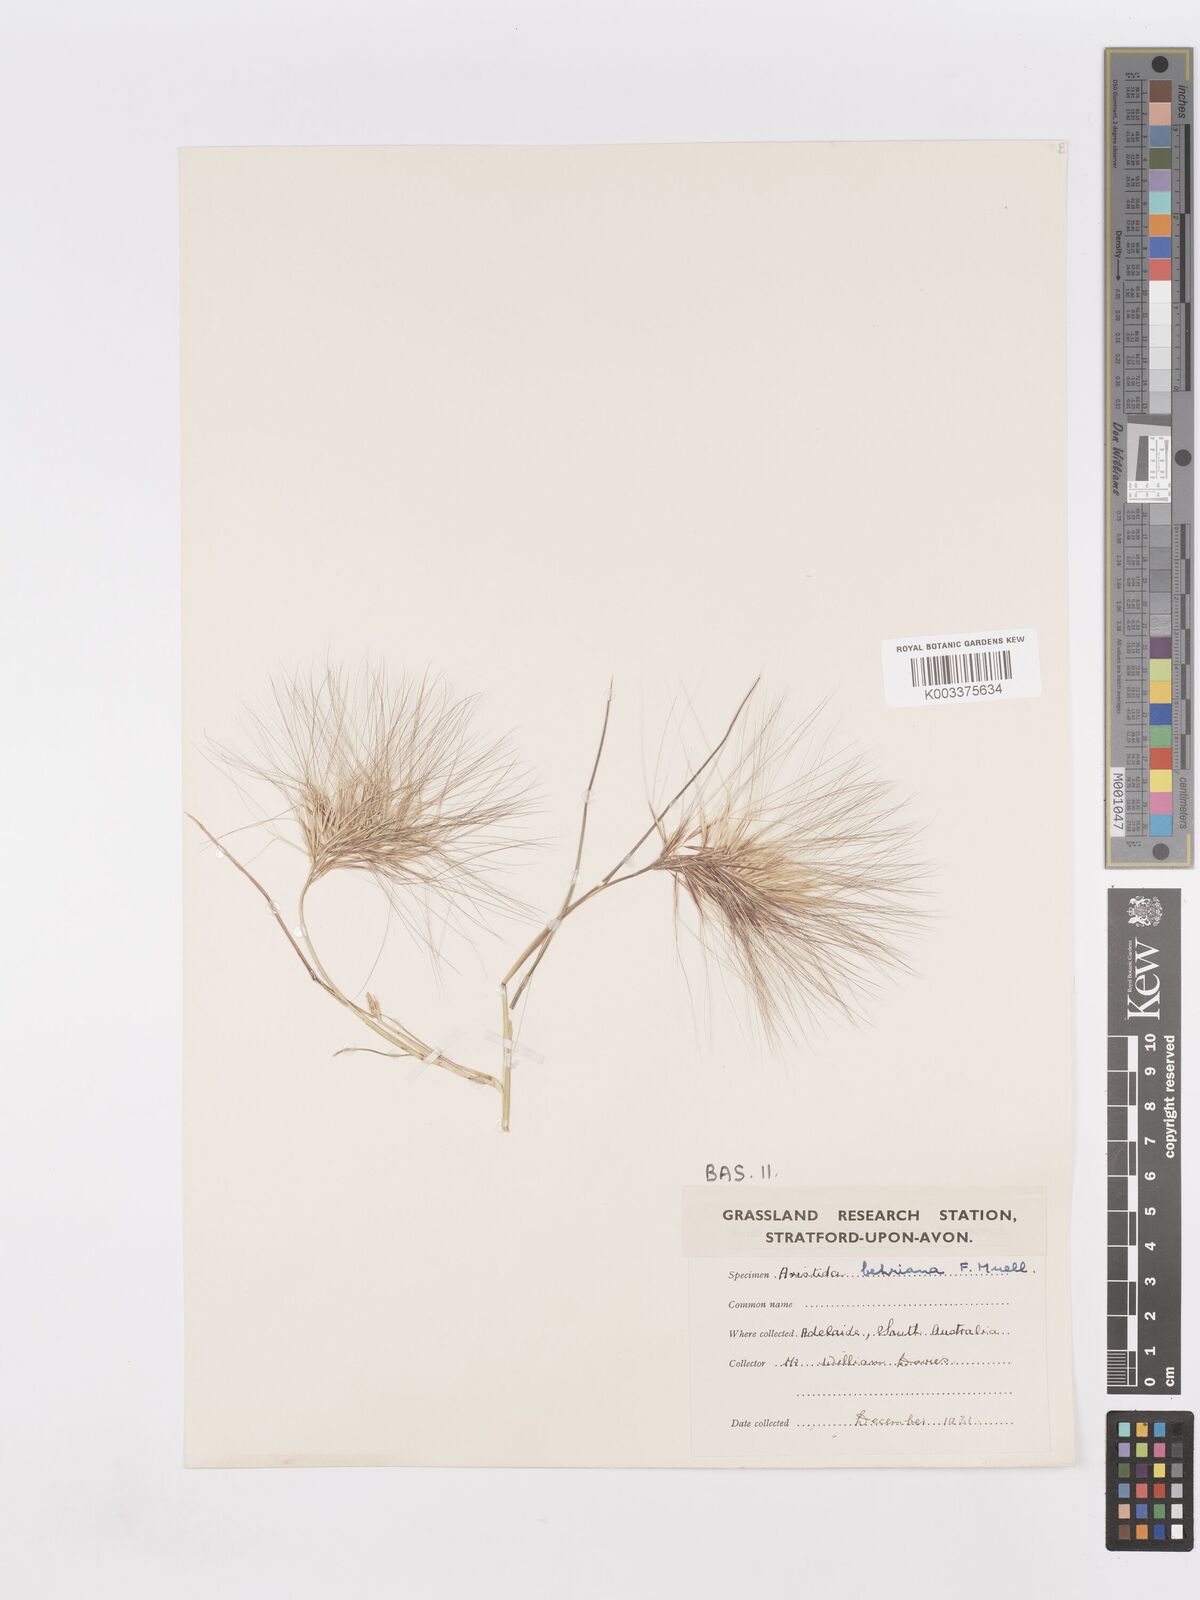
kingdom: Plantae
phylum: Tracheophyta
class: Liliopsida
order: Poales
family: Poaceae
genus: Aristida
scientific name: Aristida behriana
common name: Long-awn wire grass
